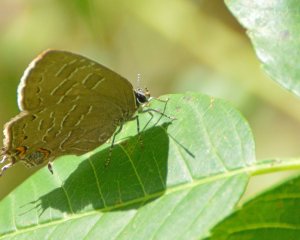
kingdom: Animalia
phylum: Arthropoda
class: Insecta
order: Lepidoptera
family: Lycaenidae
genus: Satyrium
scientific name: Satyrium liparops
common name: Striped Hairstreak
